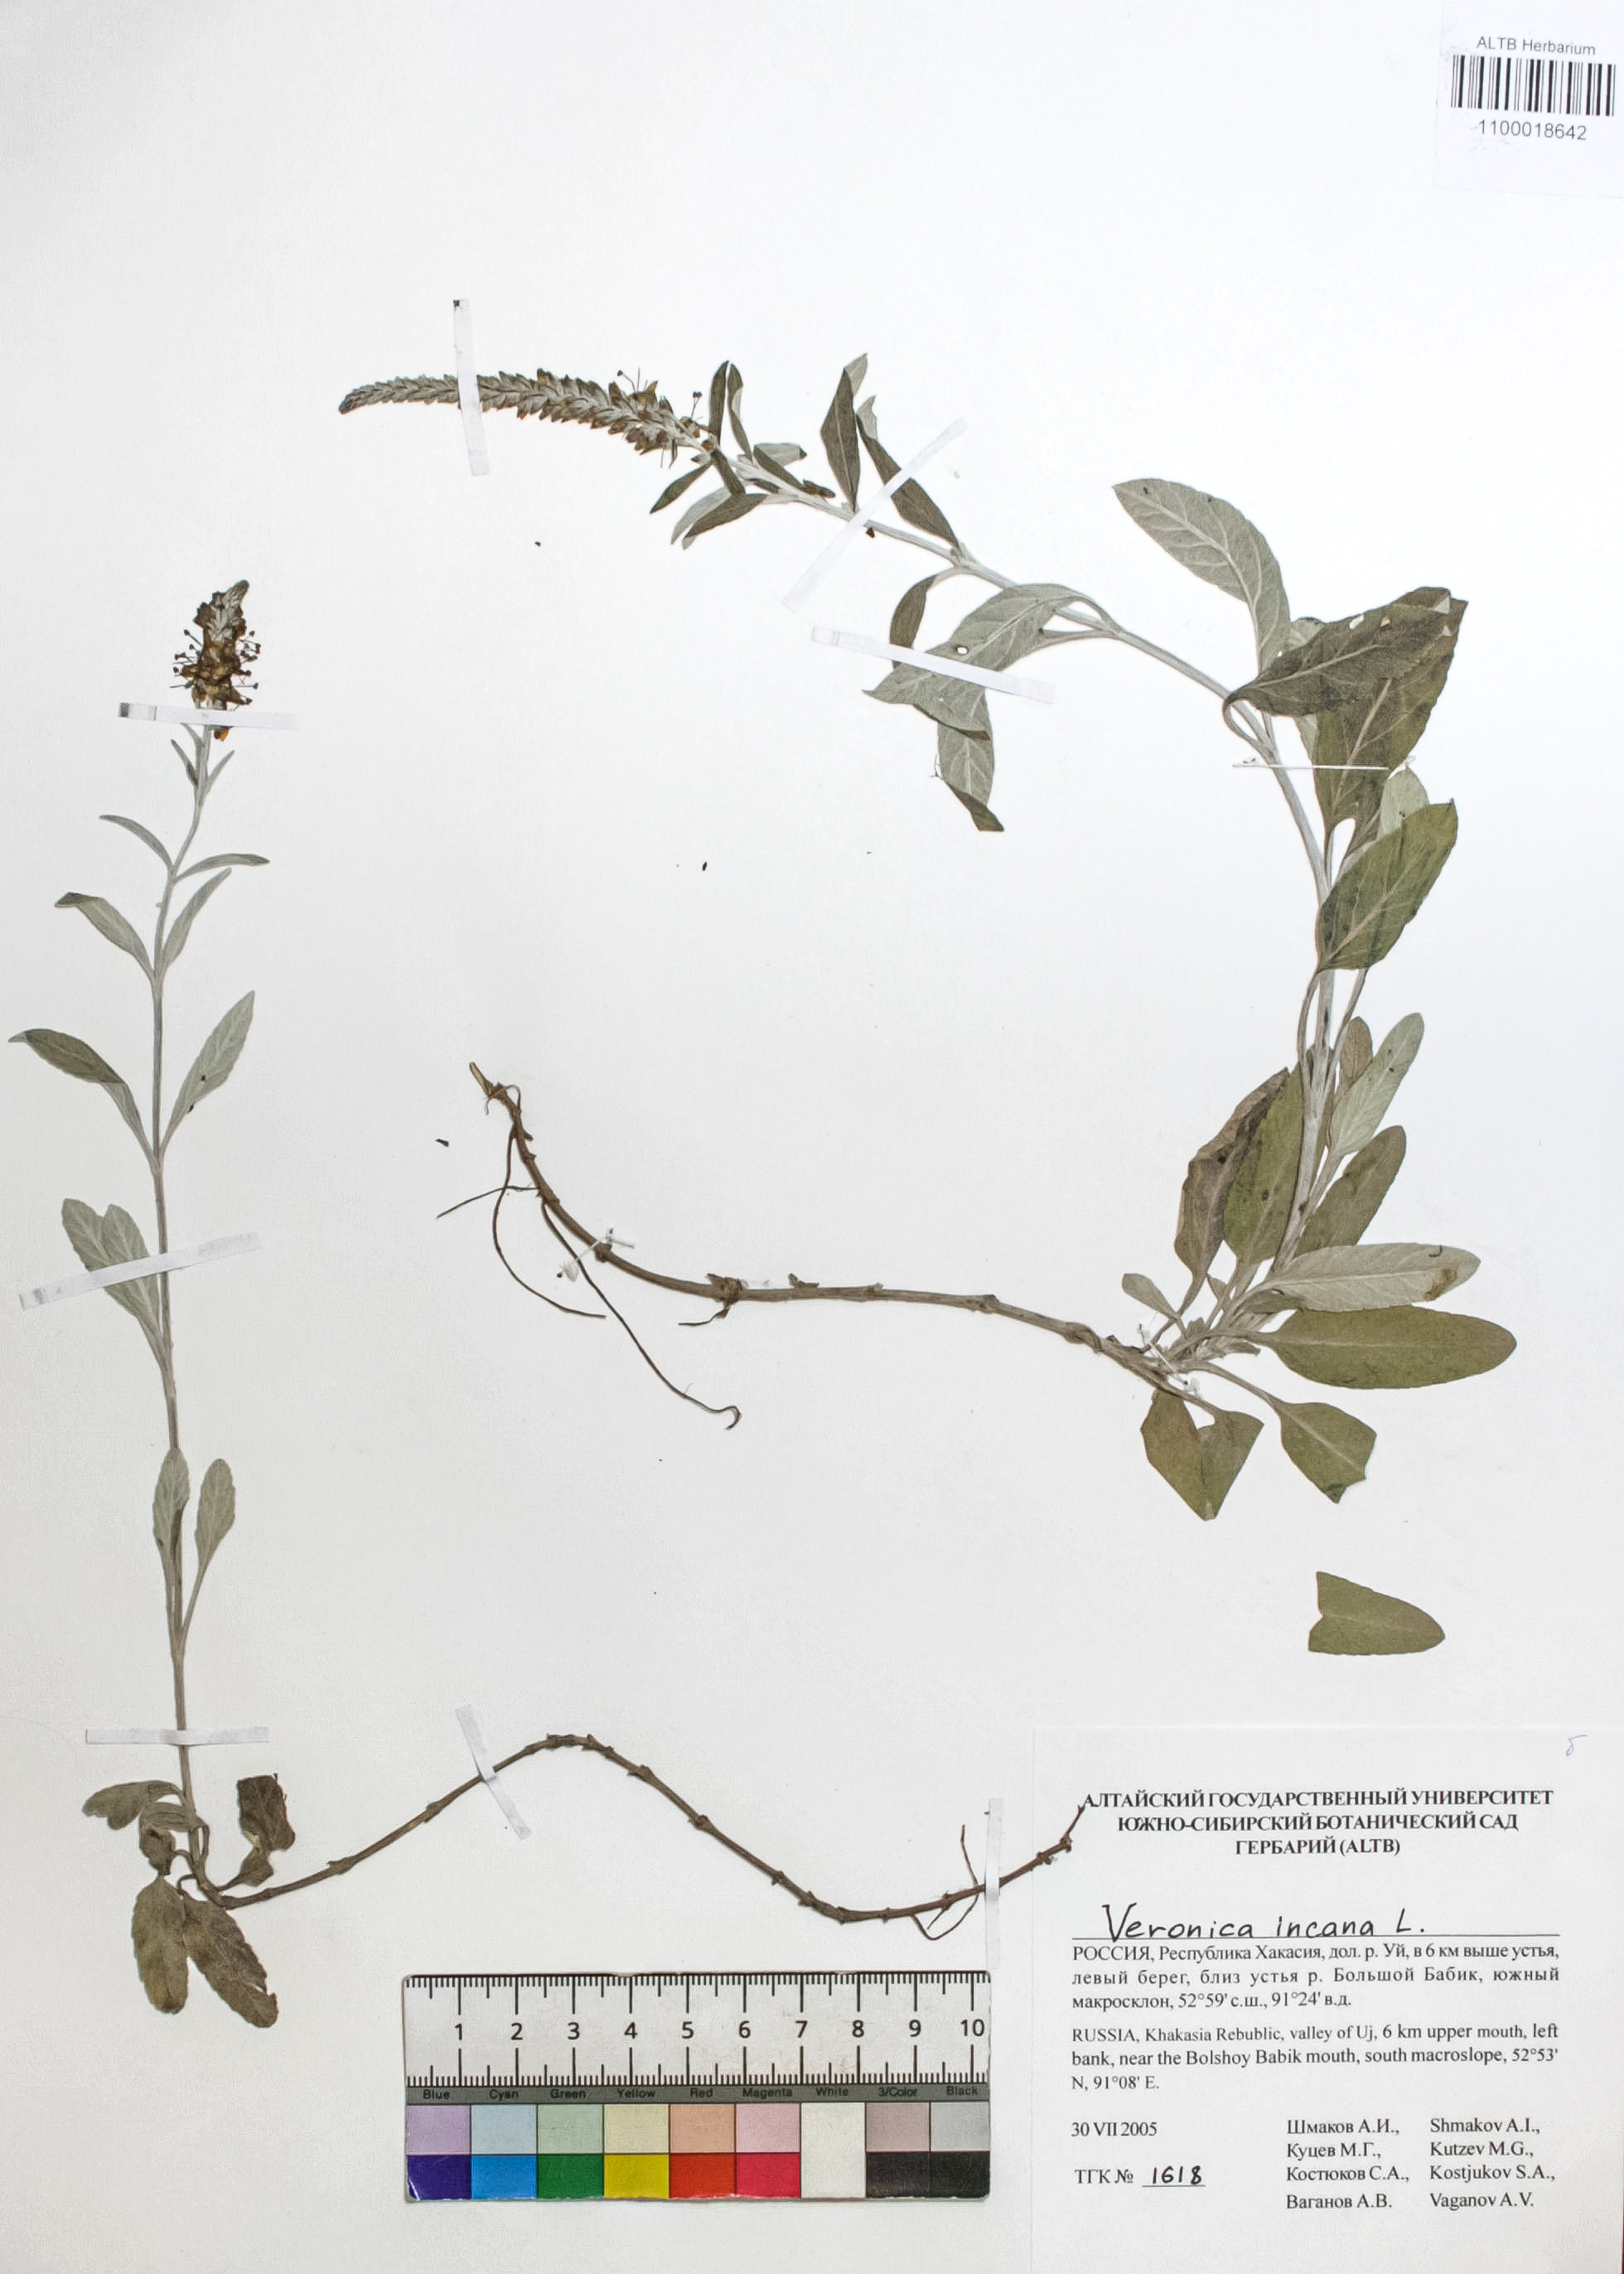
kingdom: Plantae
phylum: Tracheophyta
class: Magnoliopsida
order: Lamiales
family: Plantaginaceae
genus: Veronica
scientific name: Veronica incana
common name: Silver speedwell
